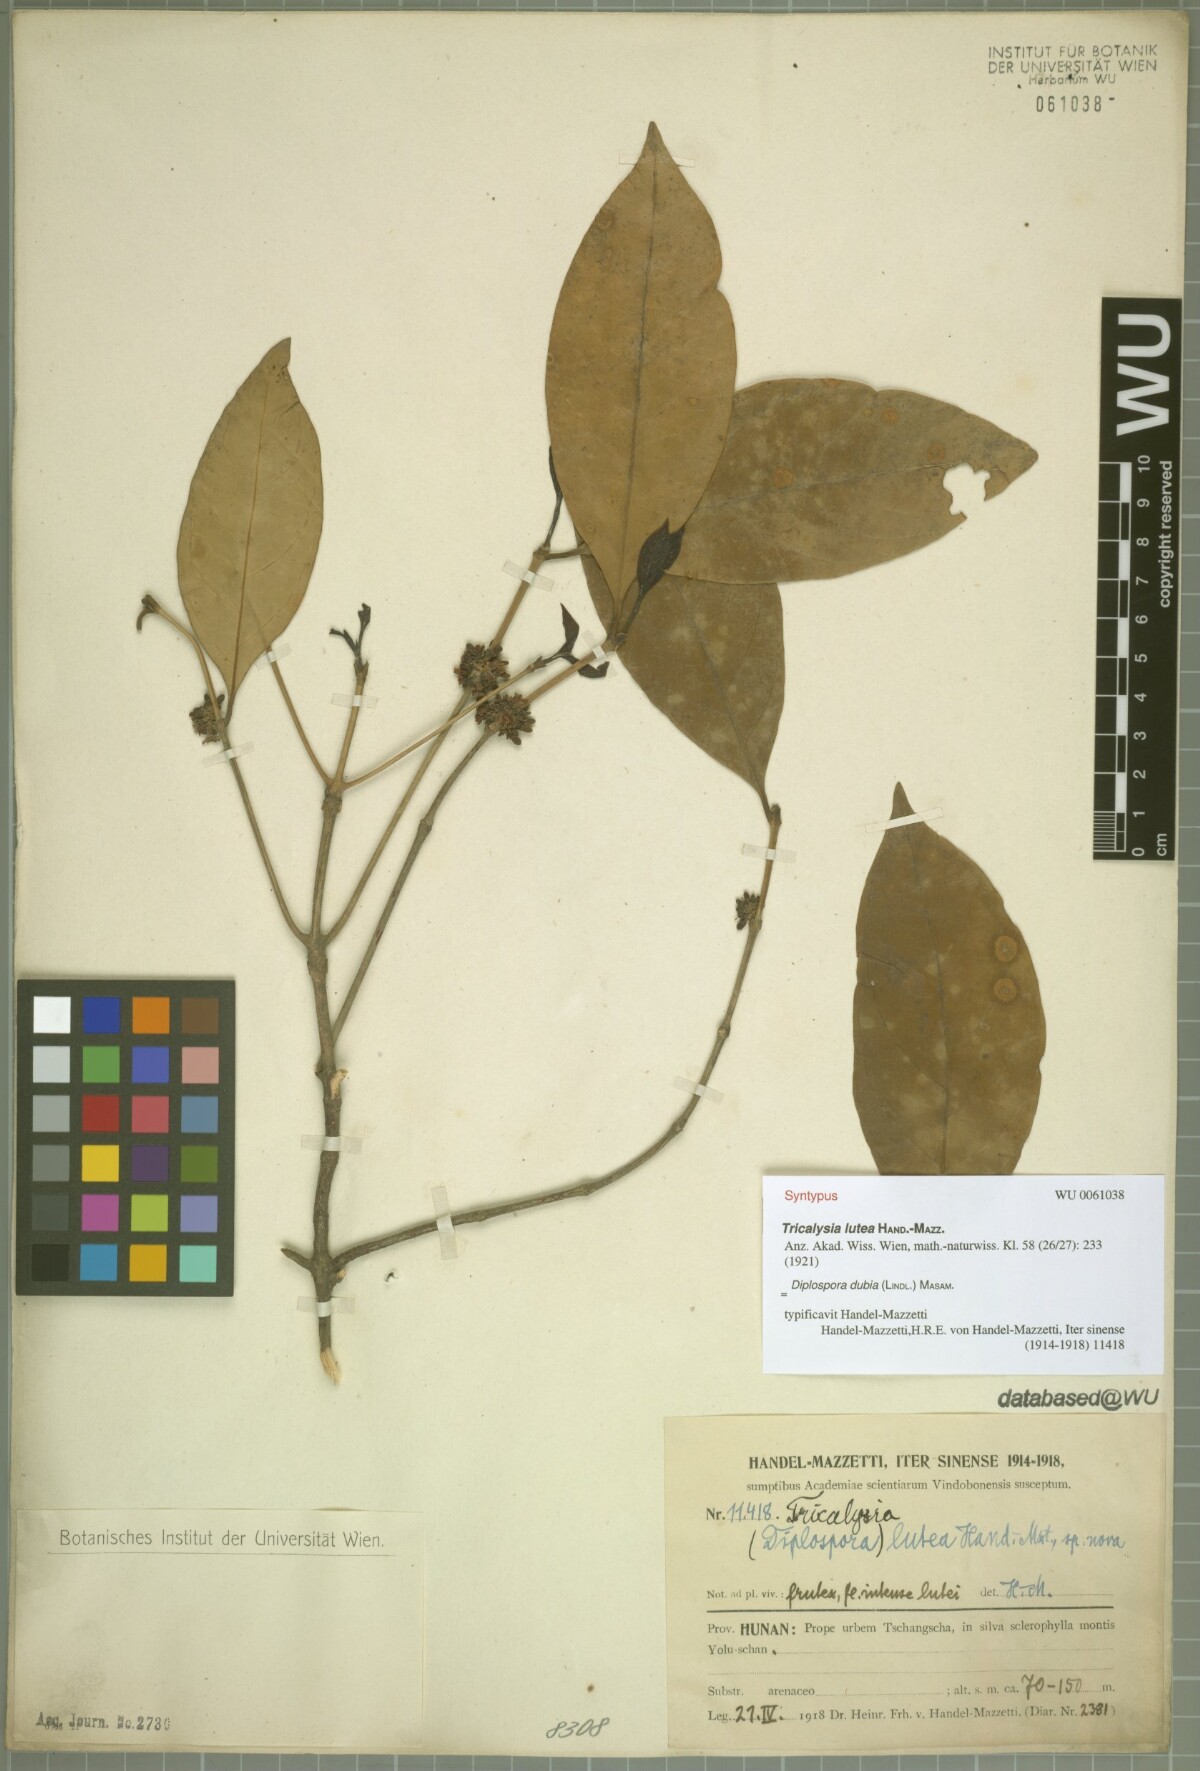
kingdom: Plantae
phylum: Tracheophyta
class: Magnoliopsida
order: Gentianales
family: Rubiaceae
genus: Diplospora
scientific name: Diplospora dubia
